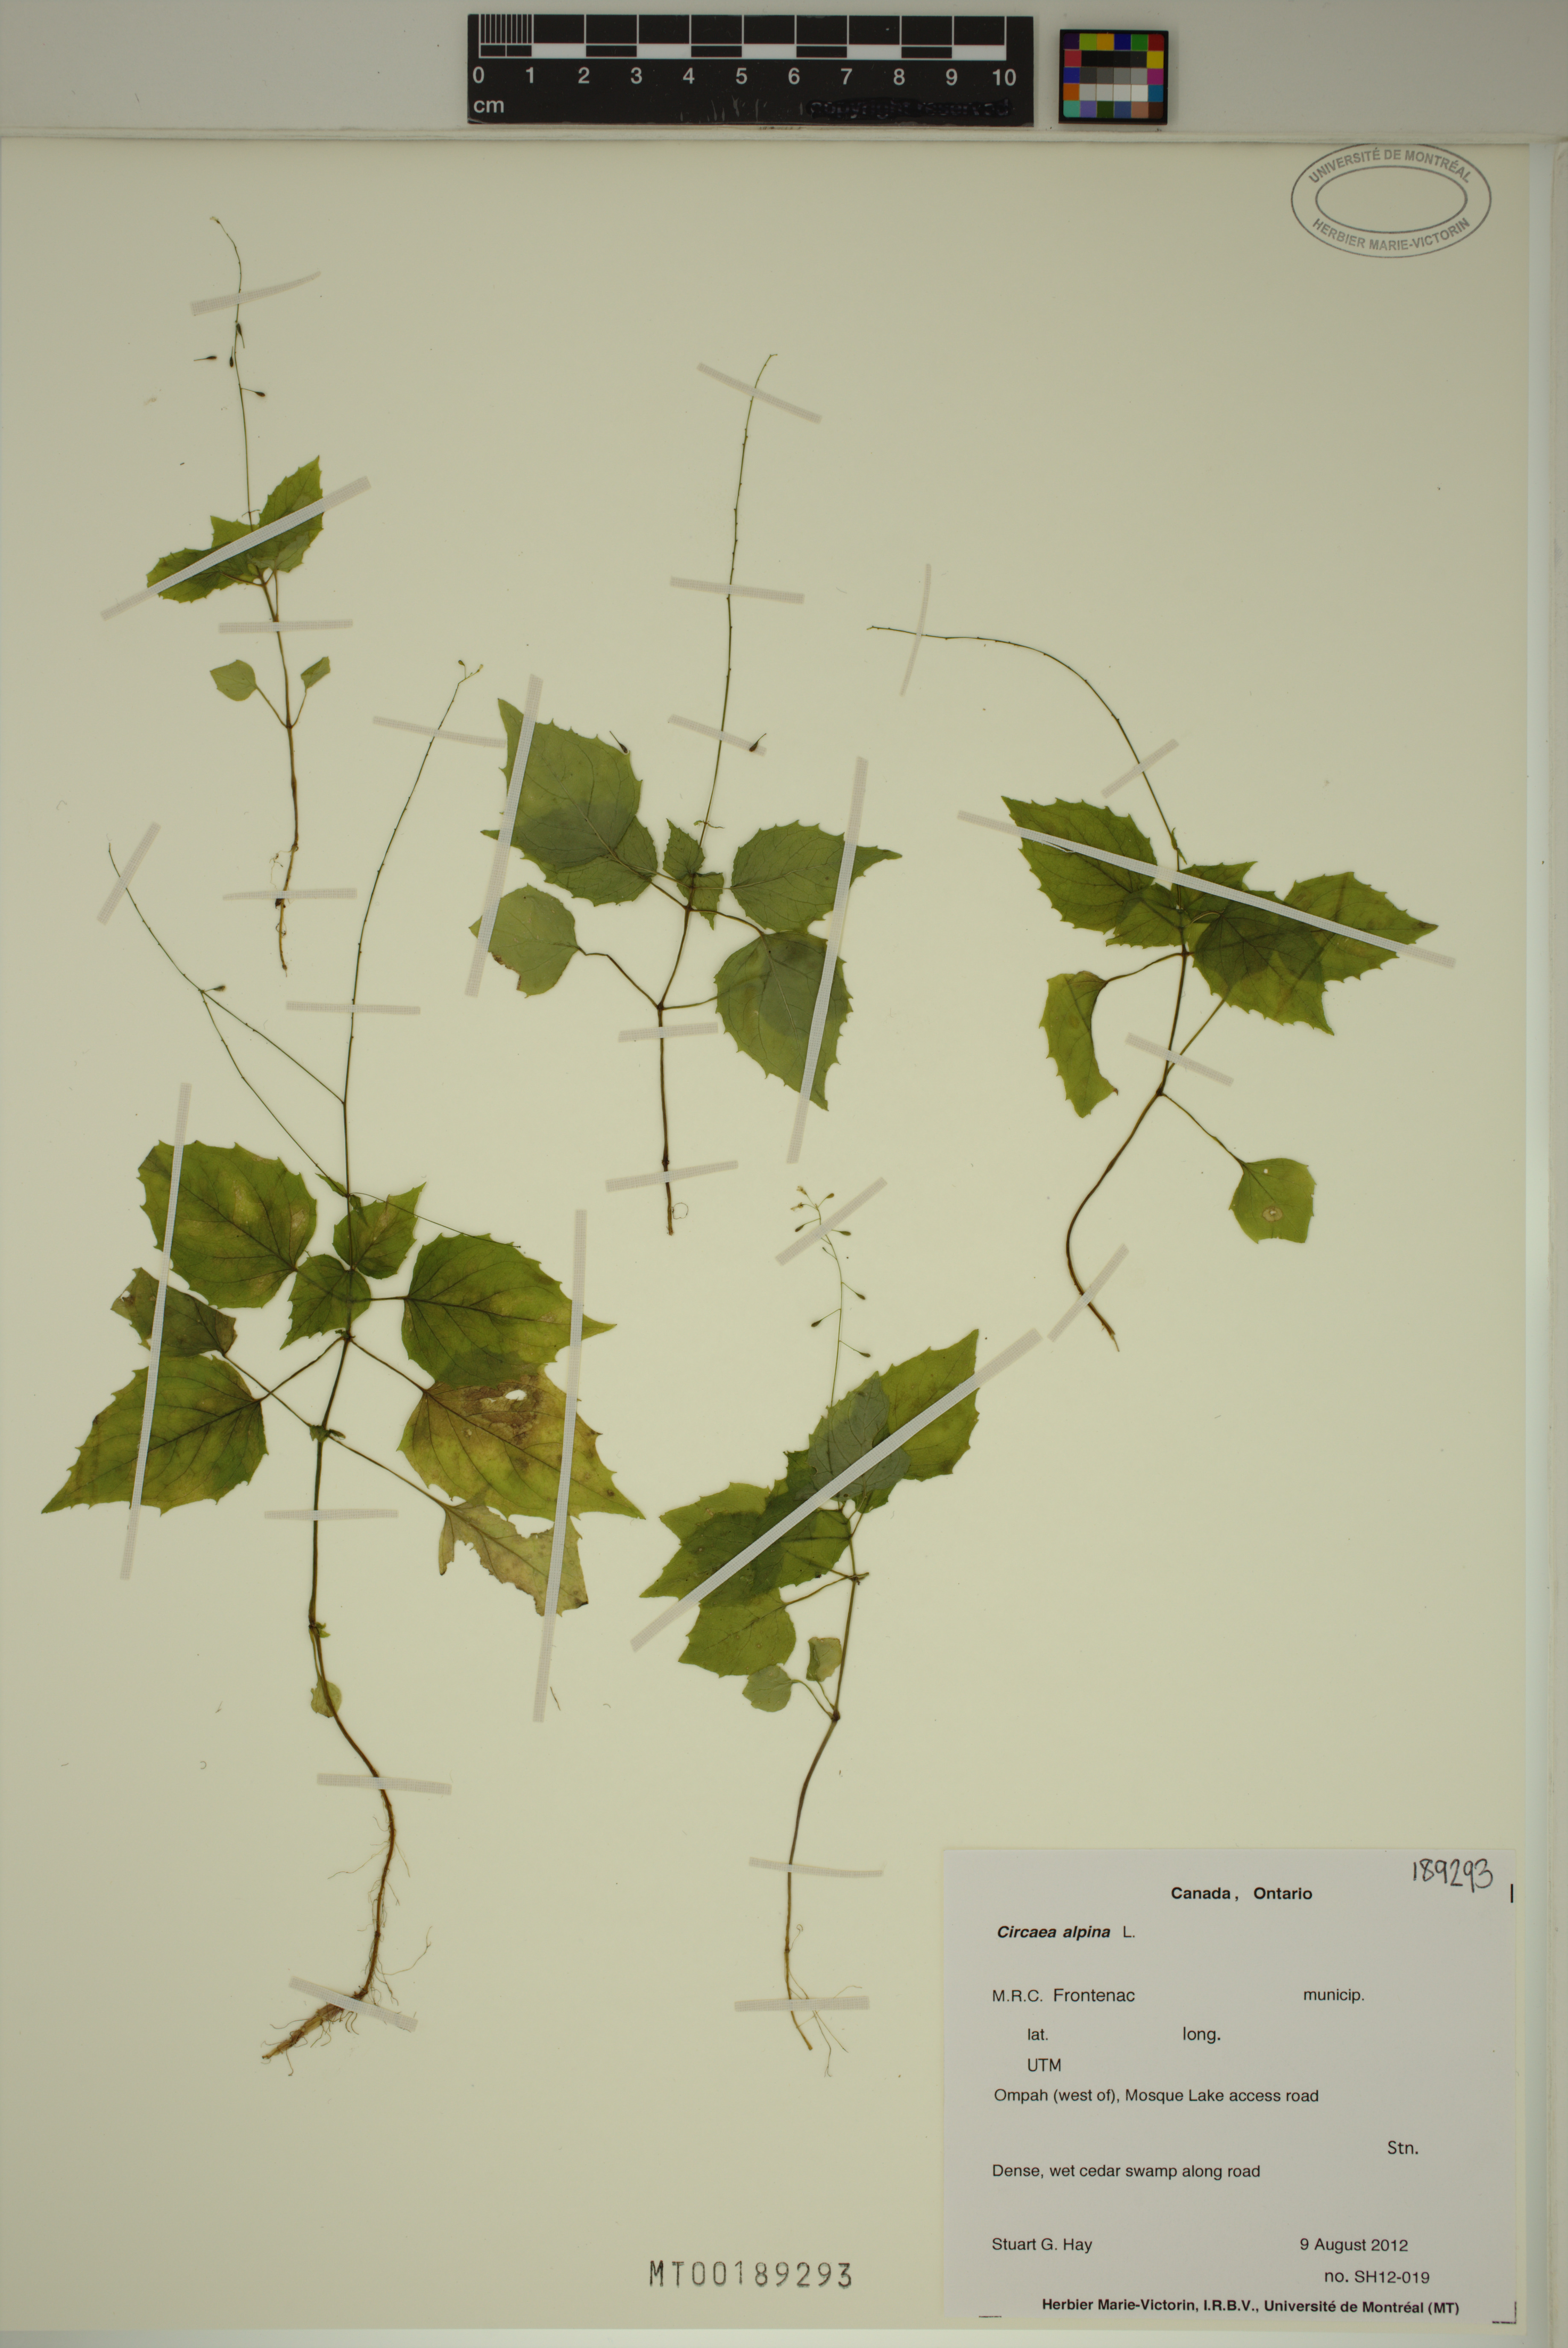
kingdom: Plantae
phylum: Tracheophyta
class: Magnoliopsida
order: Myrtales
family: Onagraceae
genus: Circaea
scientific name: Circaea alpina
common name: Alpine enchanter's-nightshade
